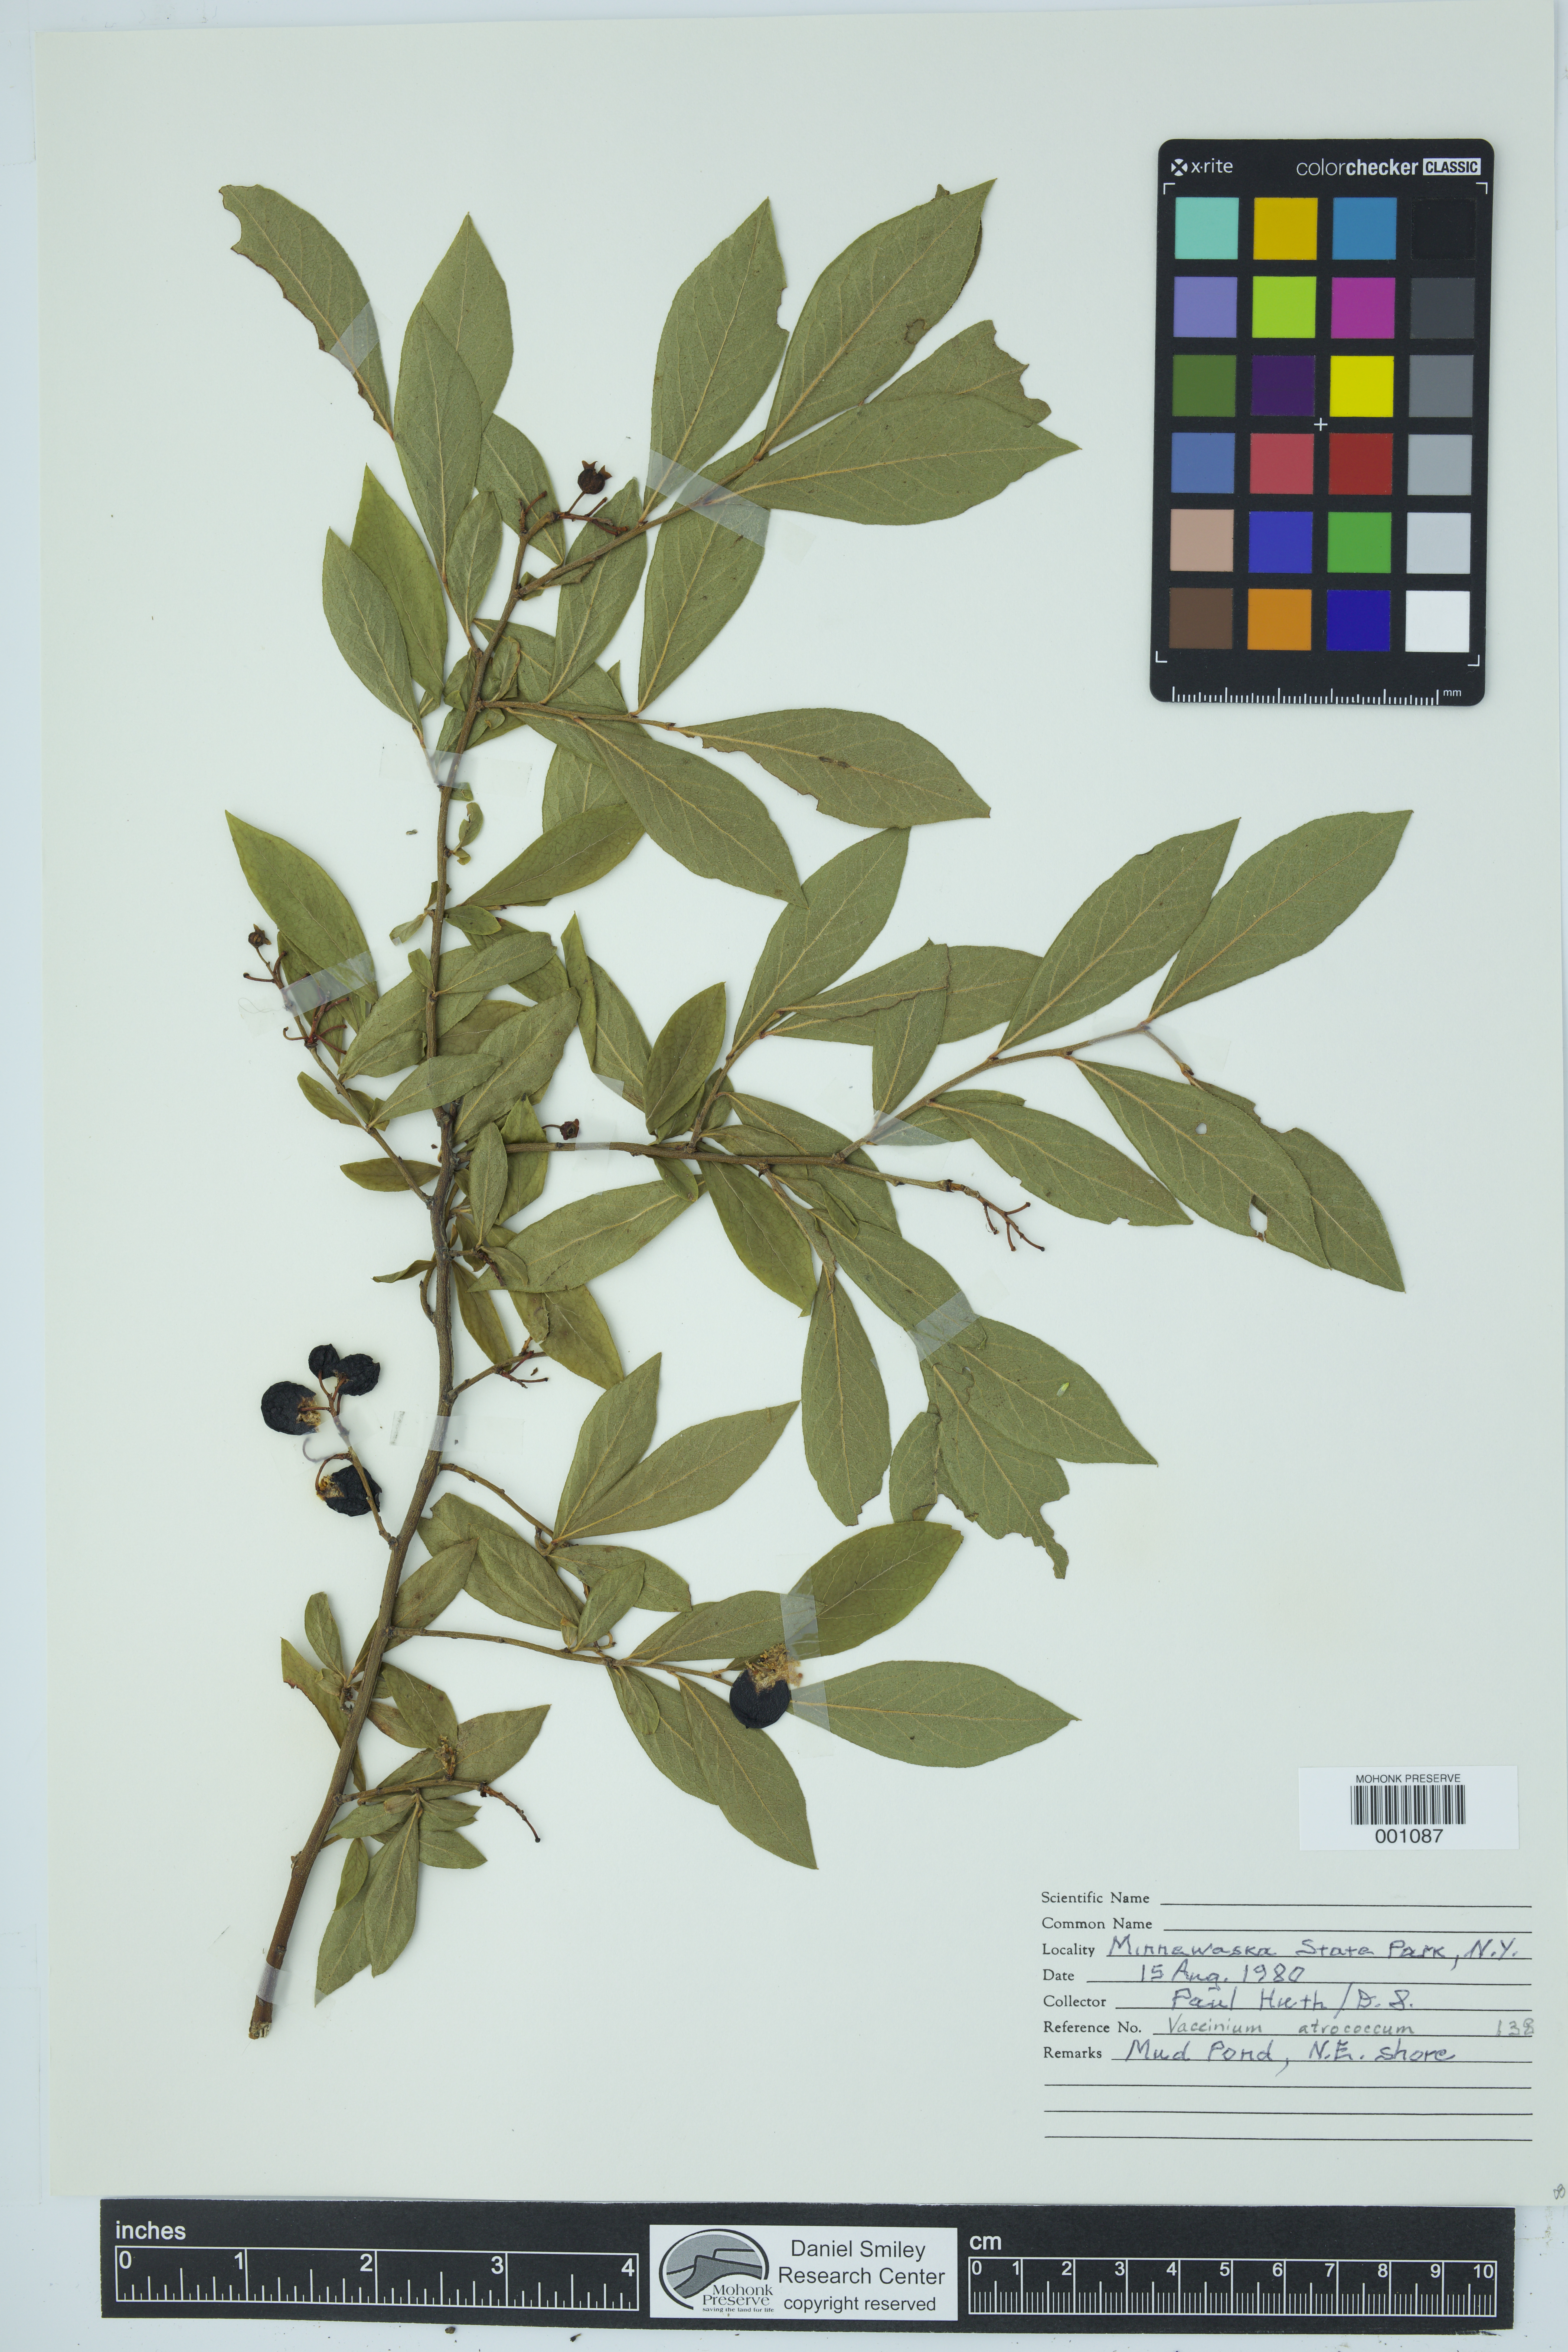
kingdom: Plantae
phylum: Tracheophyta
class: Magnoliopsida
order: Ericales
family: Ericaceae
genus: Vaccinium
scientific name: Vaccinium corymbosum
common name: Blueberry
